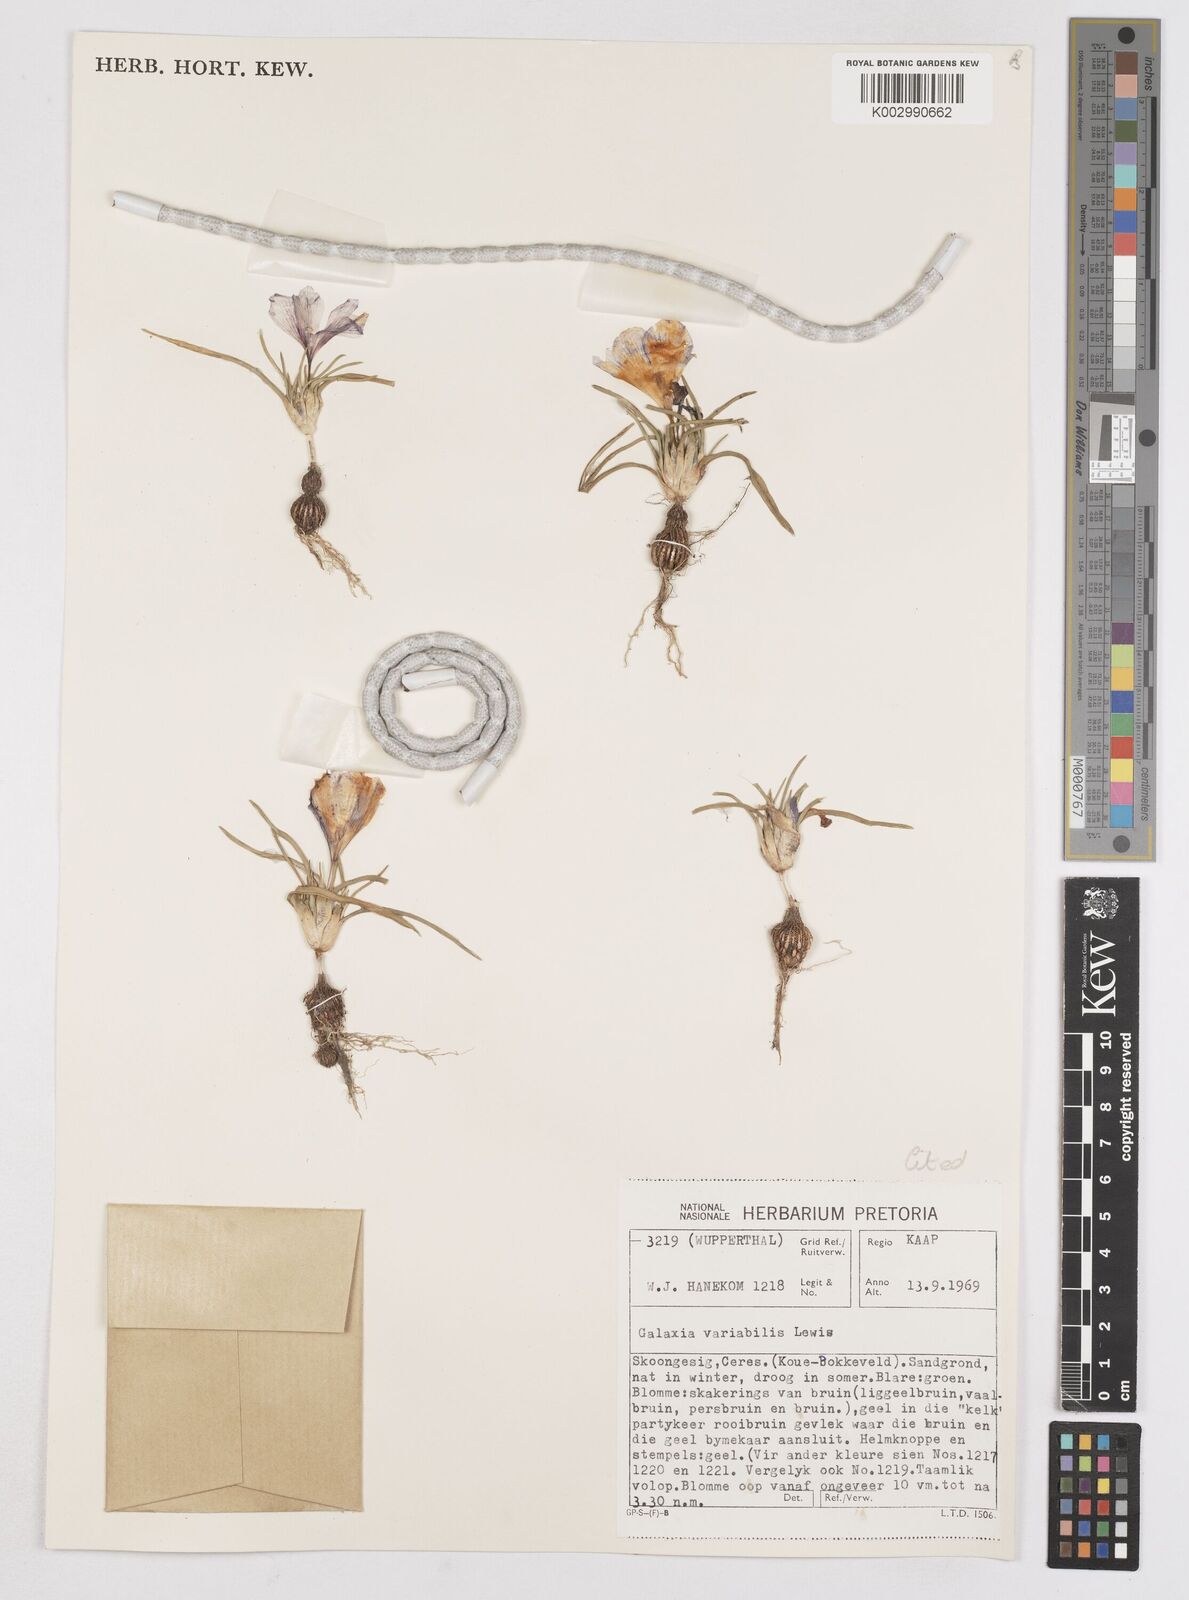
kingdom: Plantae
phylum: Tracheophyta
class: Liliopsida
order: Asparagales
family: Iridaceae
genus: Moraea
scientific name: Moraea variabilis
